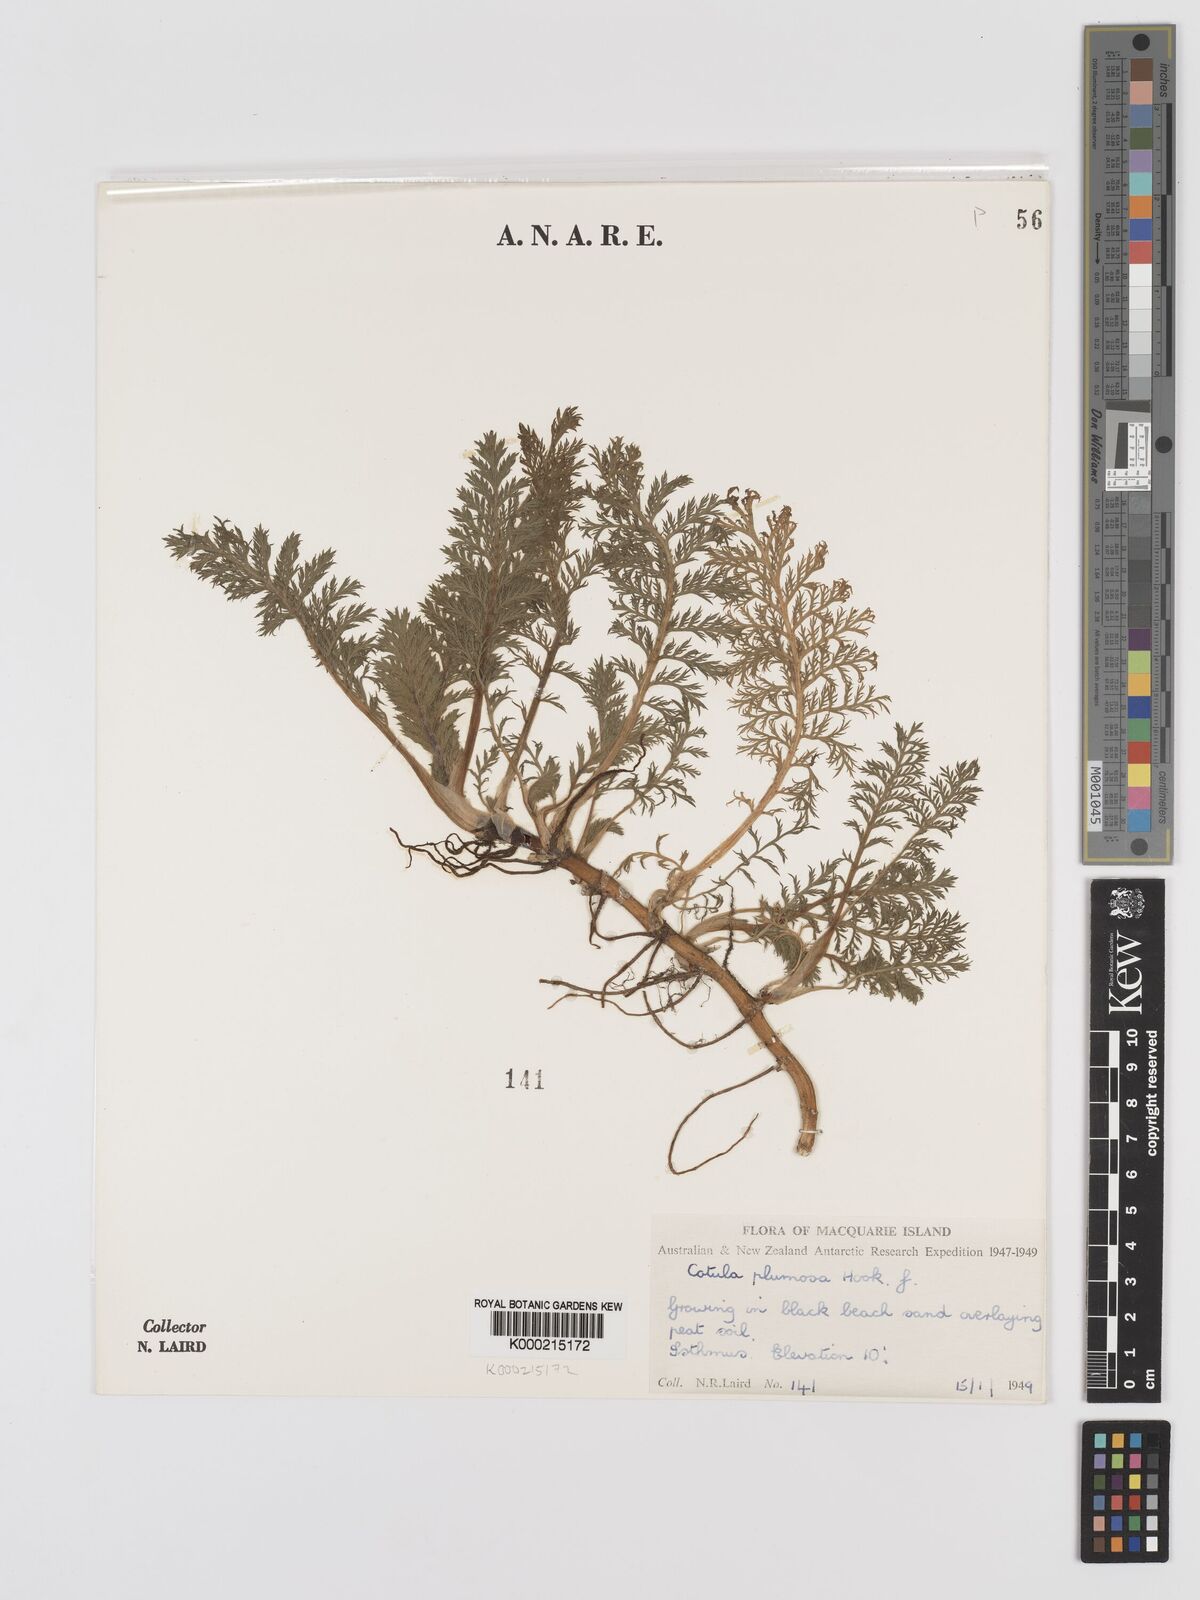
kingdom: Plantae
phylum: Tracheophyta
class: Magnoliopsida
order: Asterales
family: Asteraceae
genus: Leptinella
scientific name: Leptinella
